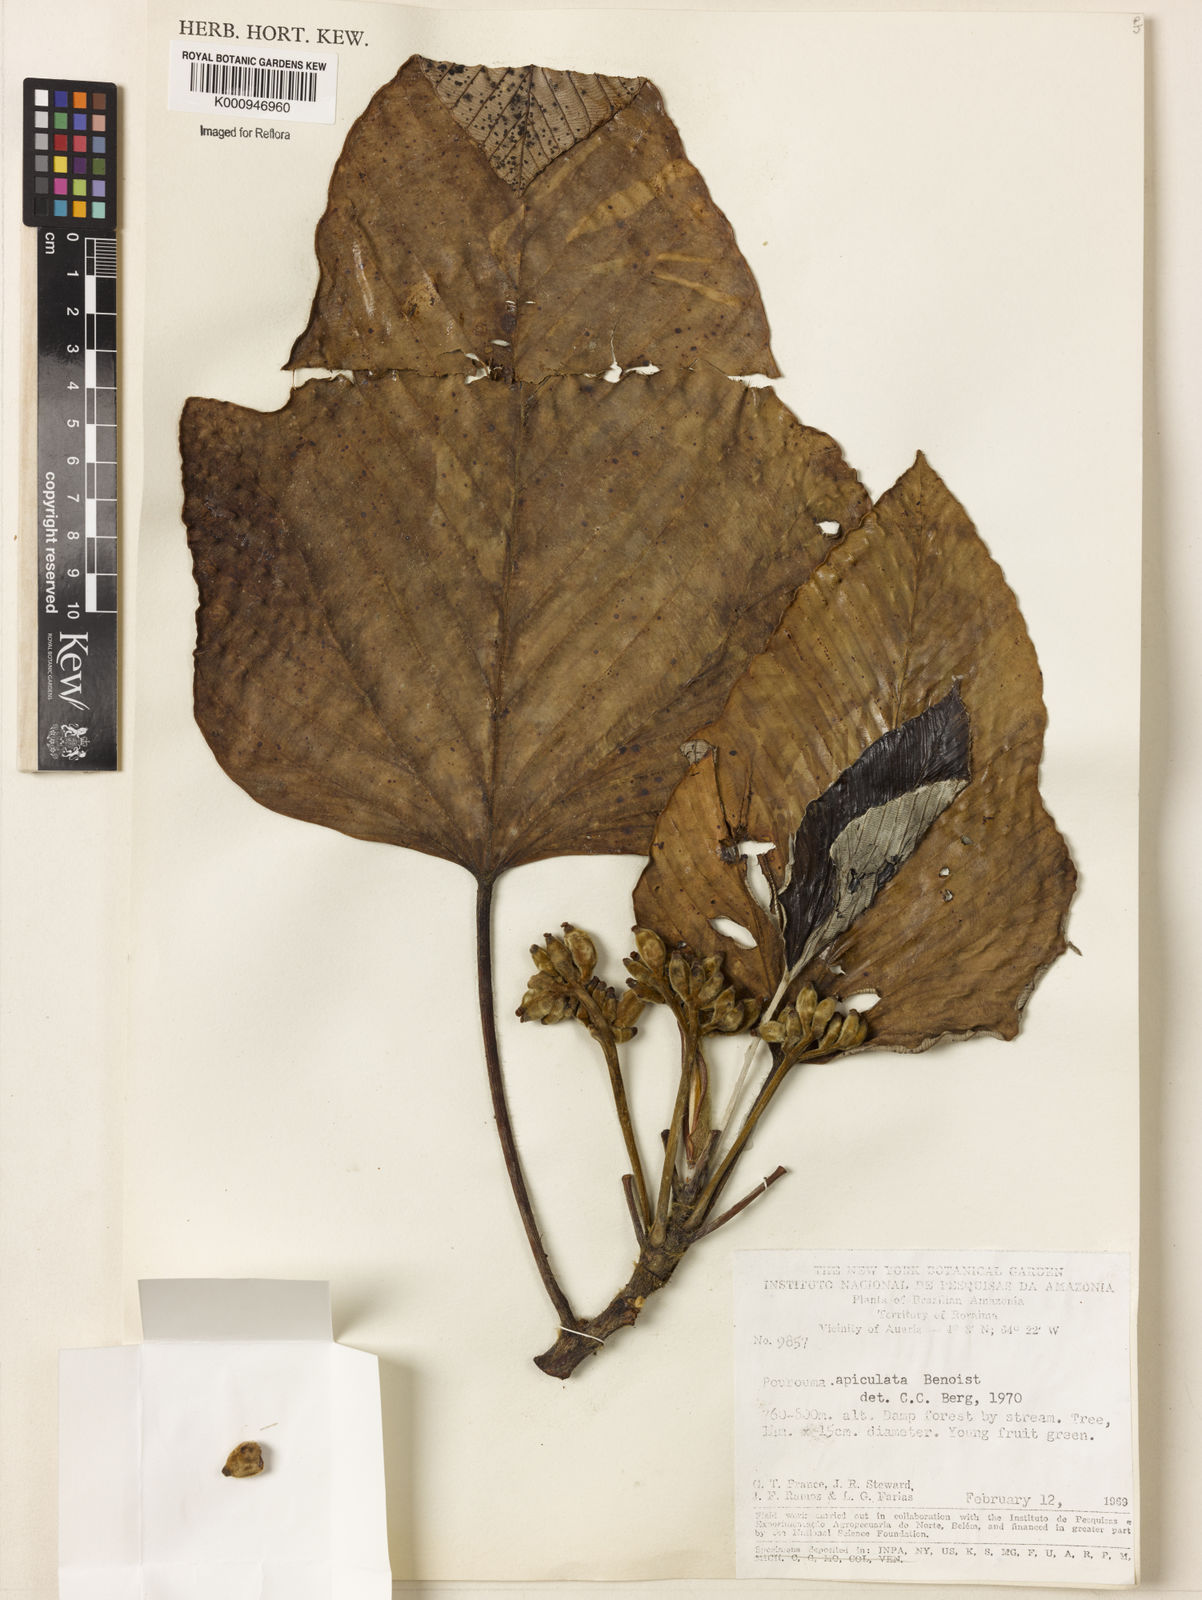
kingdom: Plantae
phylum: Tracheophyta
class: Magnoliopsida
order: Rosales
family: Urticaceae
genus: Pourouma
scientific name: Pourouma tomentosa
